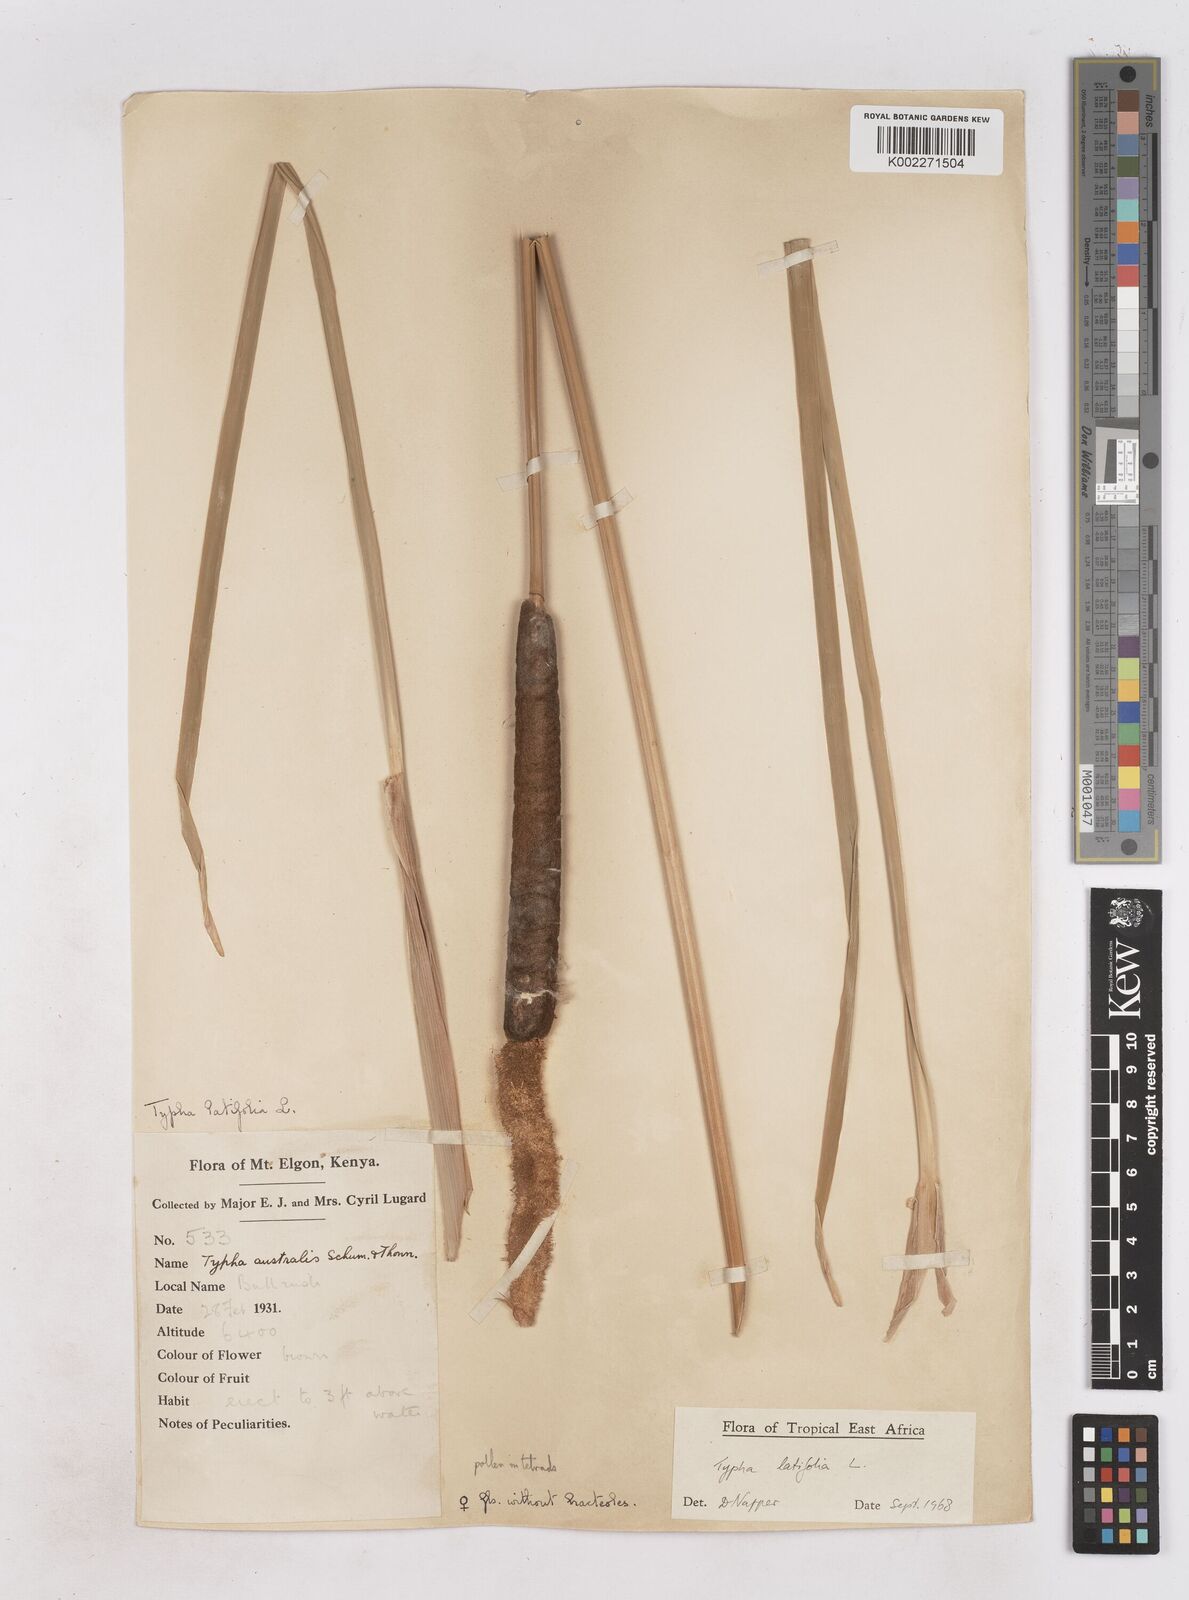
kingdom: Plantae
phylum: Tracheophyta
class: Liliopsida
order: Poales
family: Typhaceae
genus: Typha
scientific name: Typha latifolia
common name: Broadleaf cattail
